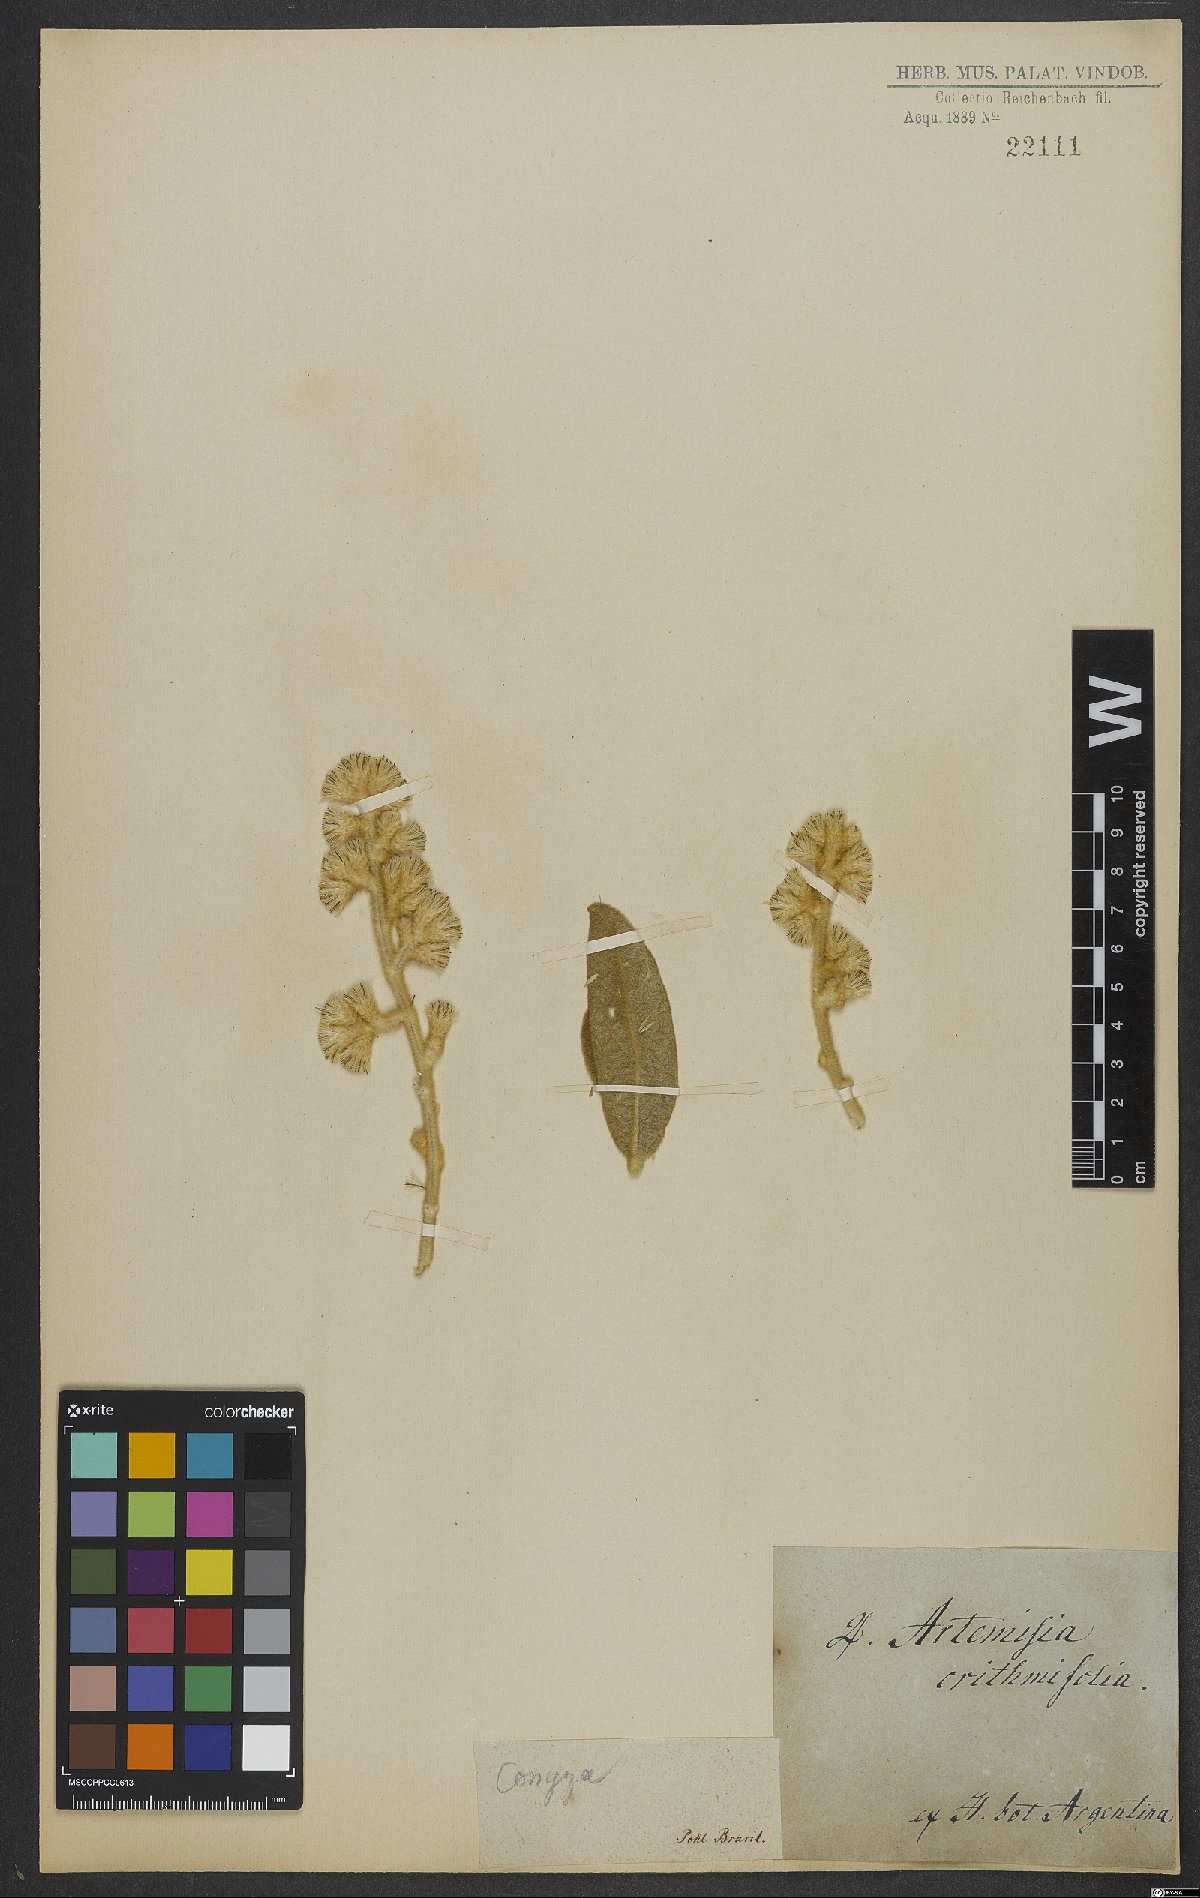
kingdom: Plantae
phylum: Tracheophyta
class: Magnoliopsida
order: Asterales
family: Asteraceae
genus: Conyza
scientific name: Conyza
